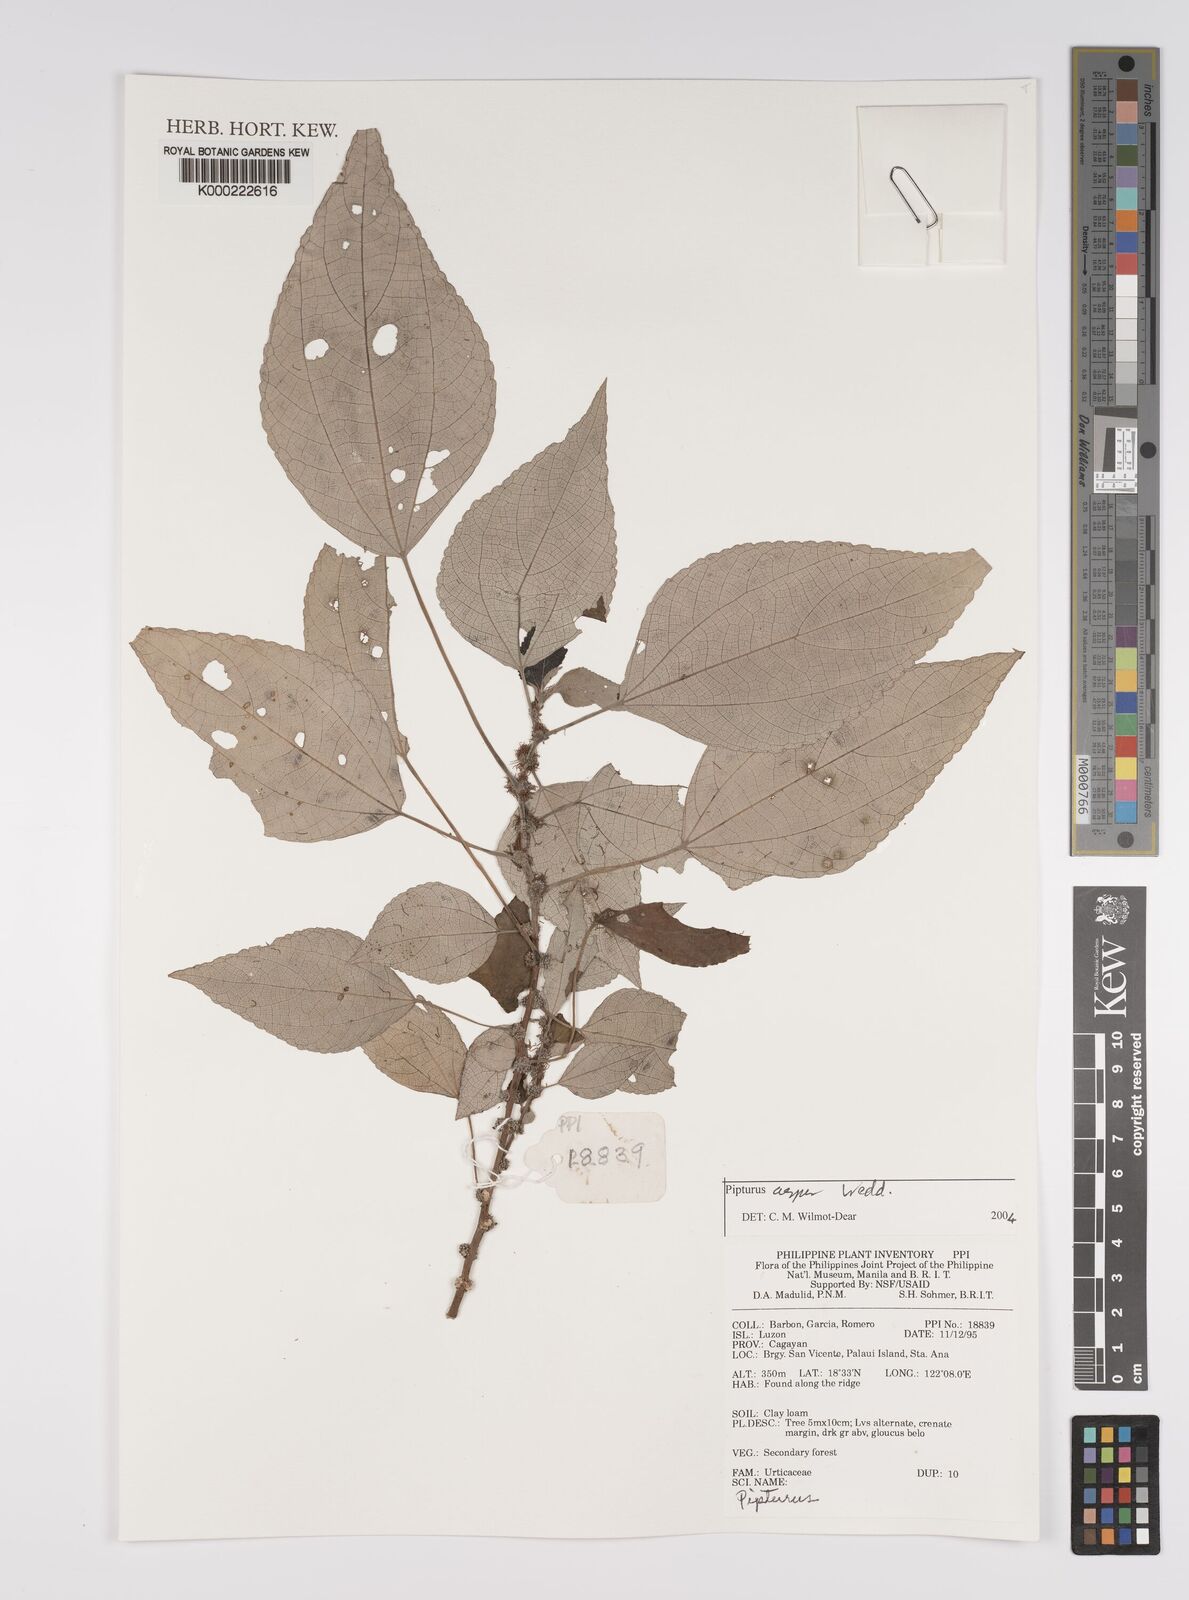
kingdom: Plantae
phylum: Tracheophyta
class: Magnoliopsida
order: Rosales
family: Urticaceae
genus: Pipturus
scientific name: Pipturus arborescens
